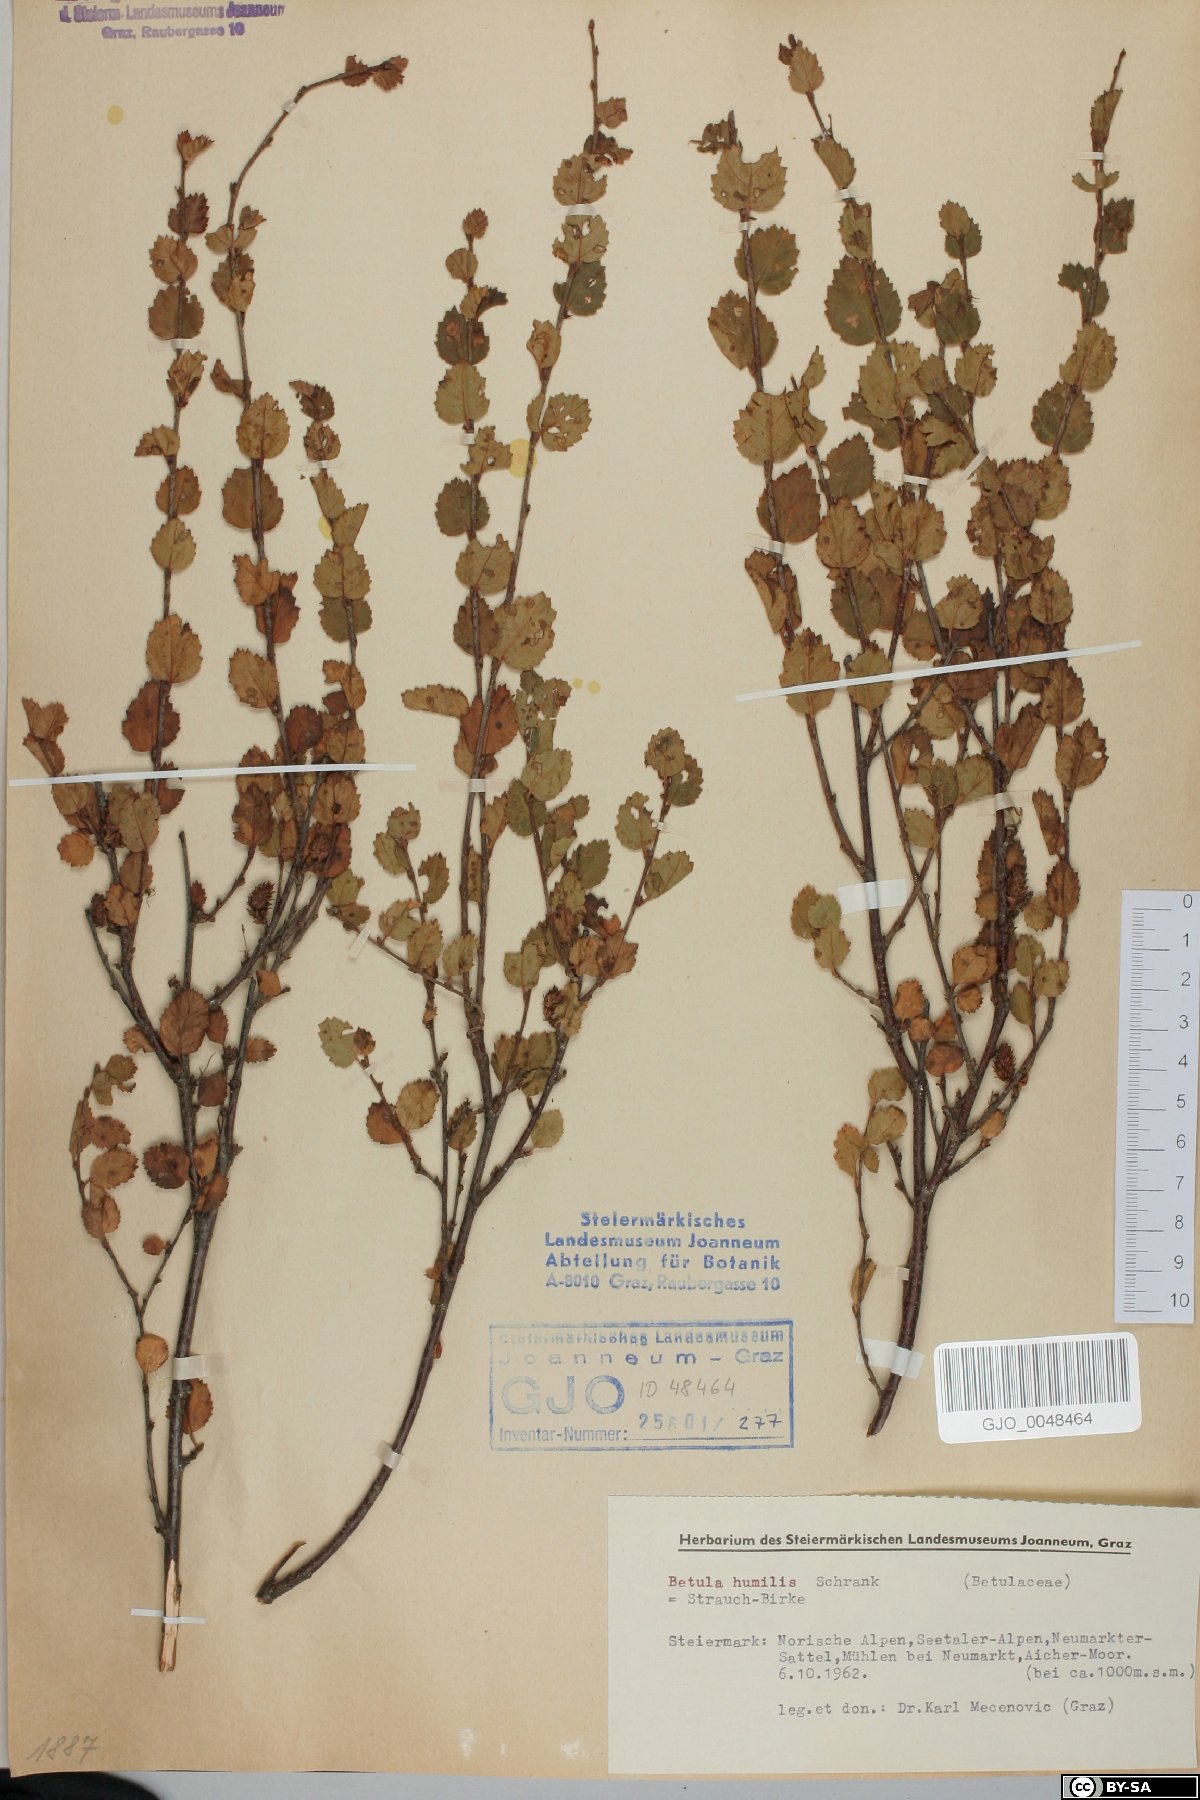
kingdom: Plantae
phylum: Tracheophyta
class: Magnoliopsida
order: Fagales
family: Betulaceae
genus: Betula
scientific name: Betula humilis
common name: Shrubby birch
